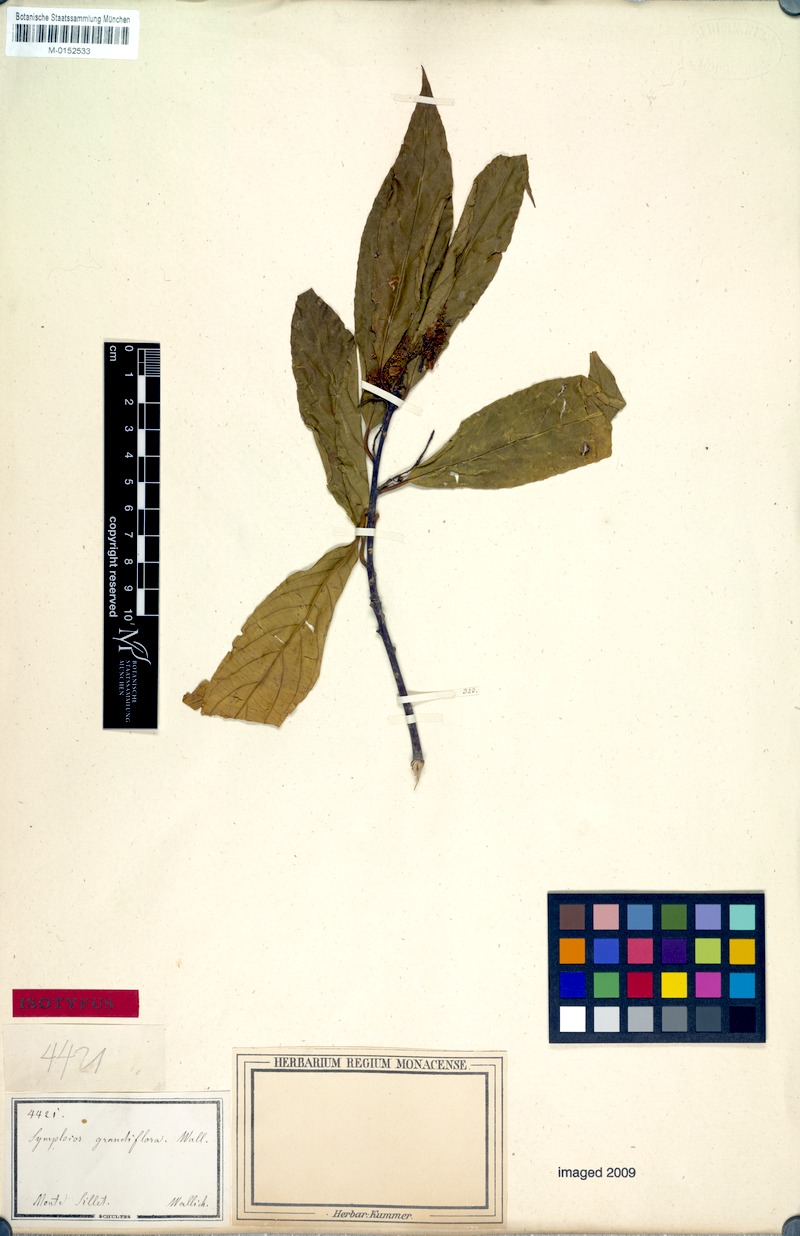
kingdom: Plantae
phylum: Tracheophyta
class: Magnoliopsida
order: Ericales
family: Symplocaceae
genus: Symplocos
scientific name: Symplocos macrophylla
